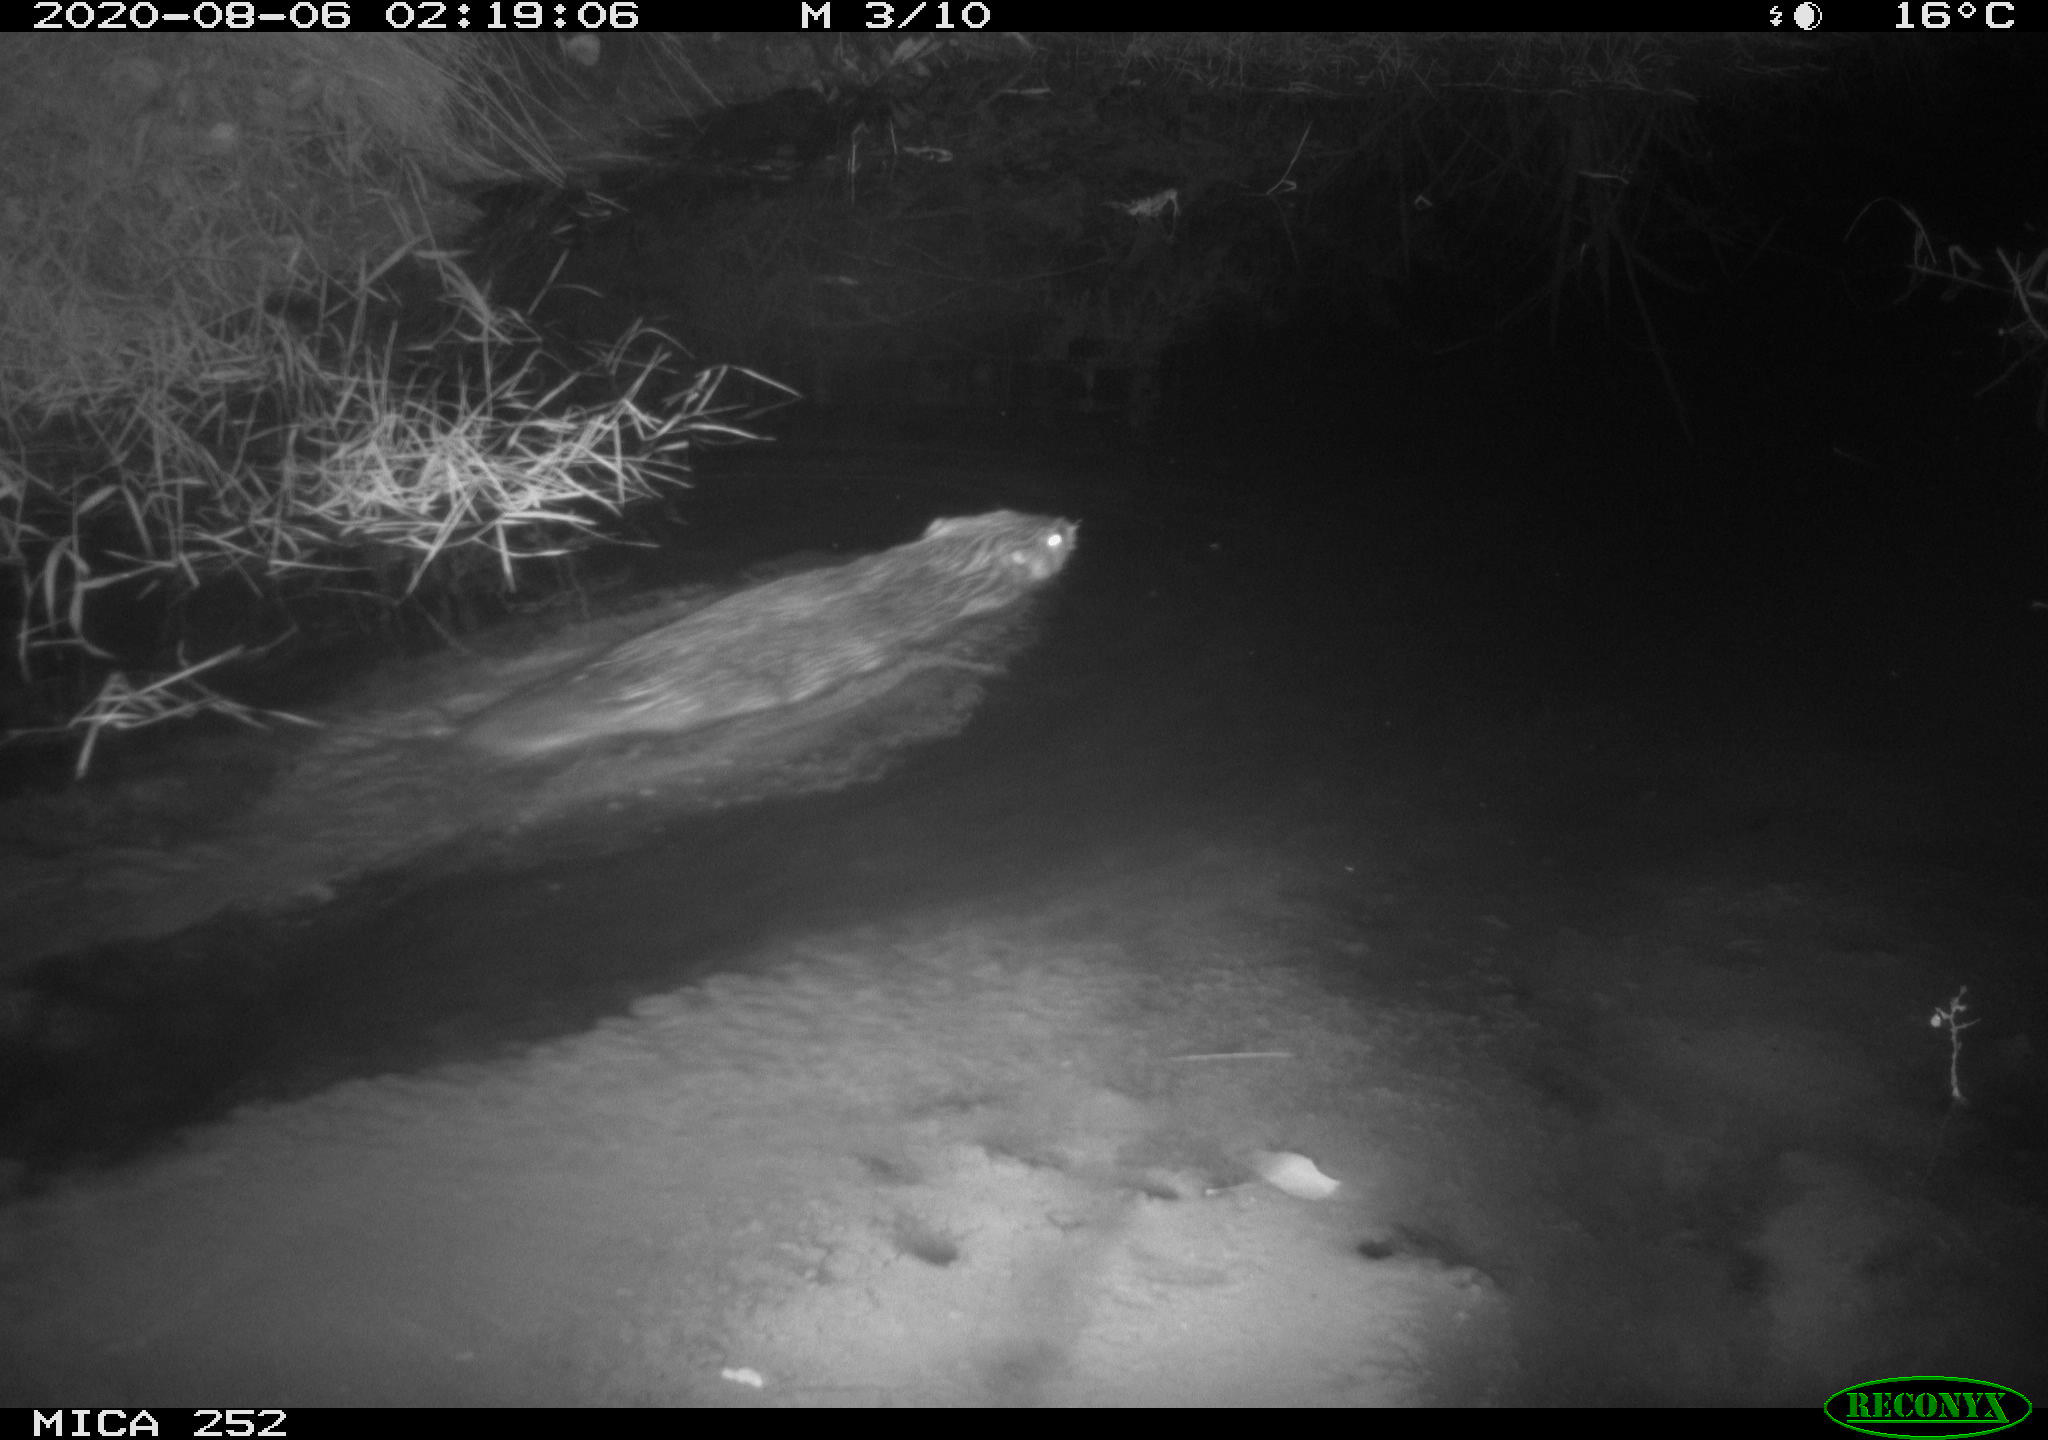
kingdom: Animalia
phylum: Chordata
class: Mammalia
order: Rodentia
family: Castoridae
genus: Castor
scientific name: Castor fiber
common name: Eurasian beaver
